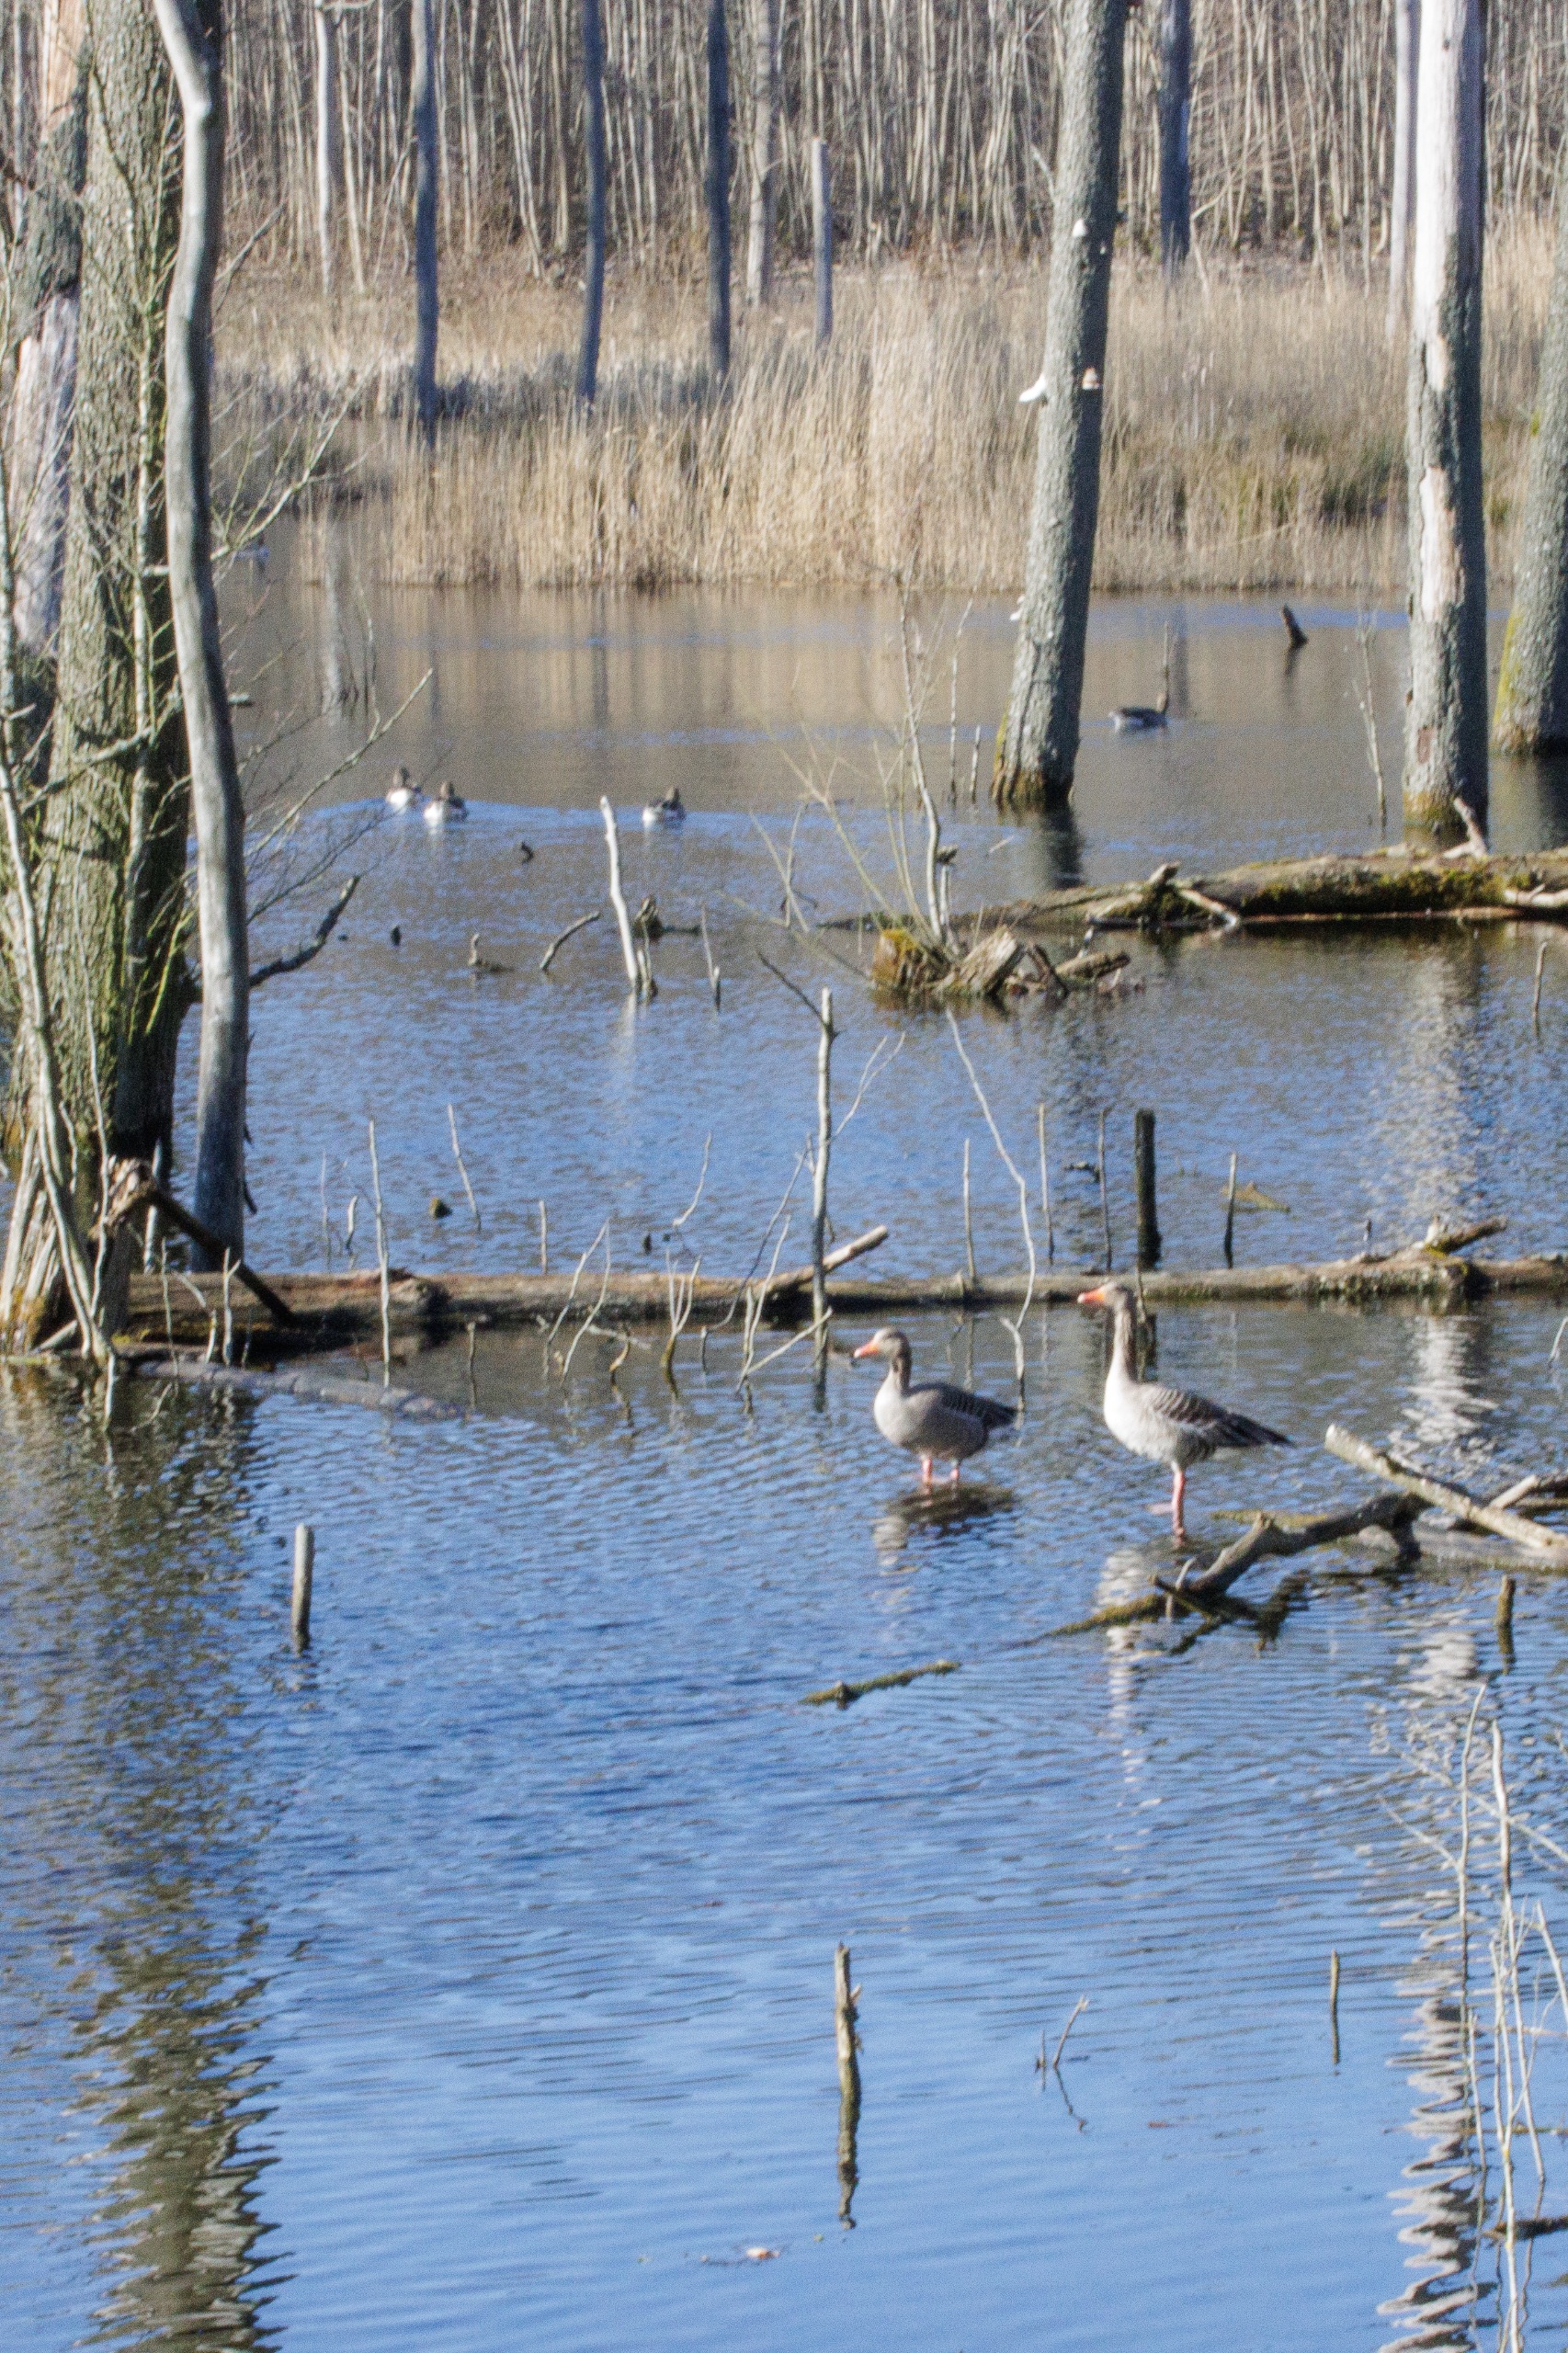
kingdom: Animalia
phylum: Chordata
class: Aves
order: Anseriformes
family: Anatidae
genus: Anser
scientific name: Anser anser
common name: Grågås
